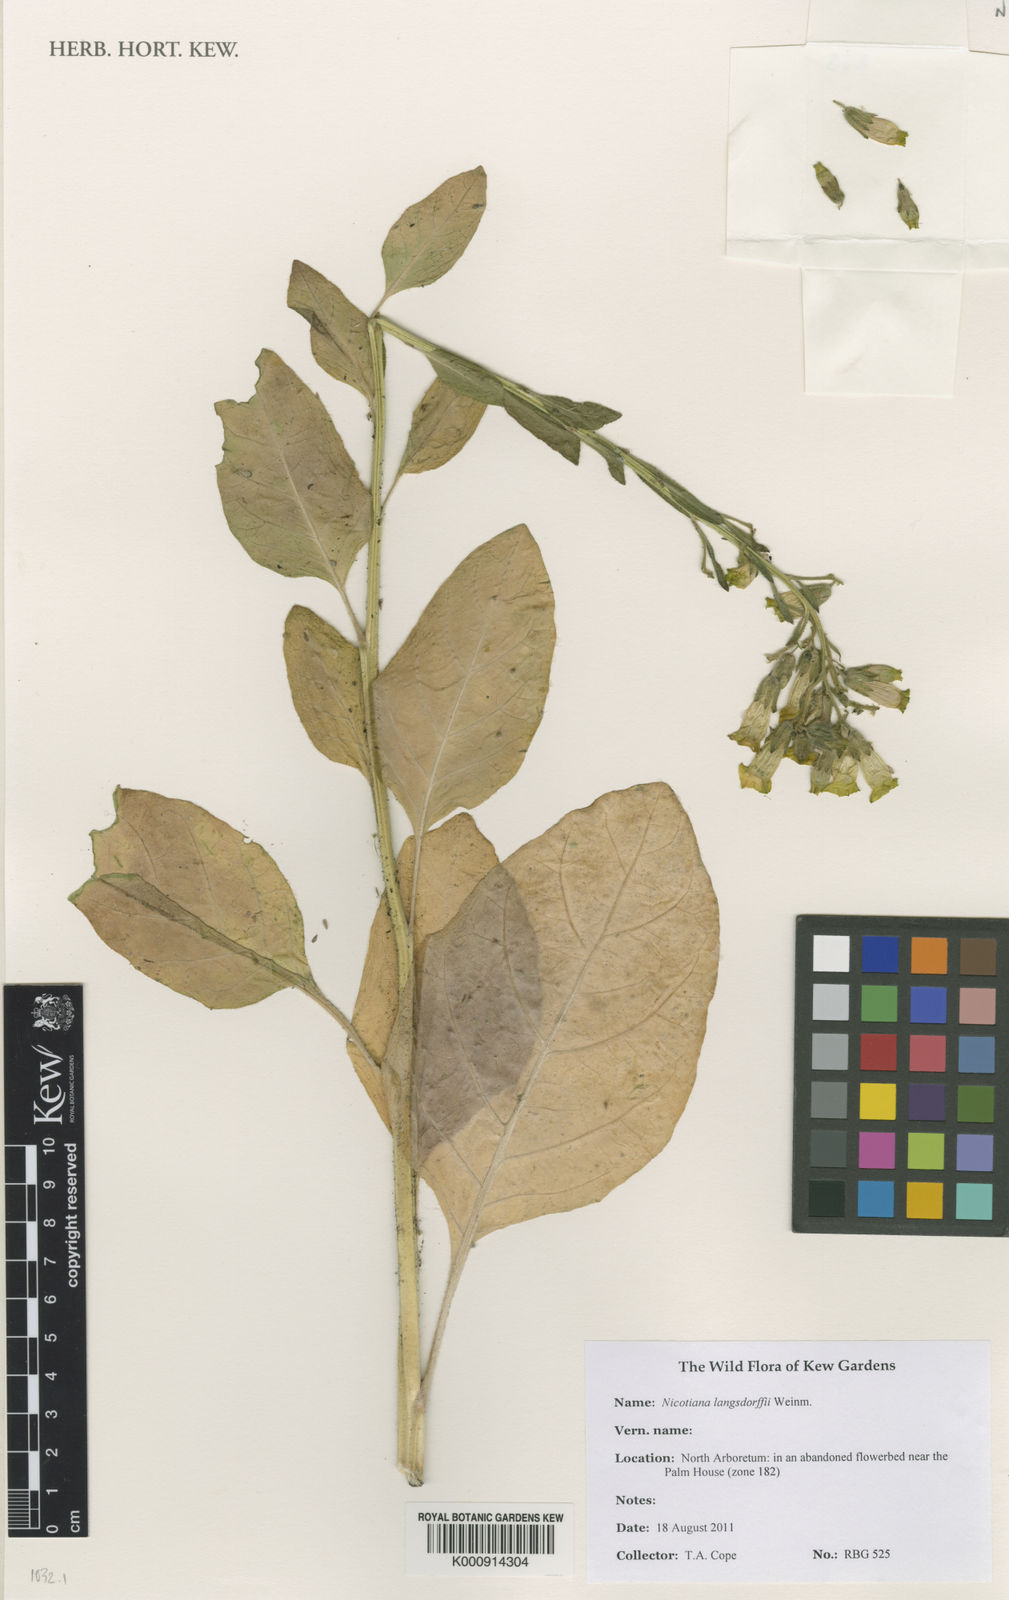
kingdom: Plantae
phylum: Tracheophyta
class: Magnoliopsida
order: Solanales
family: Solanaceae
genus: Nicotiana
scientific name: Nicotiana
